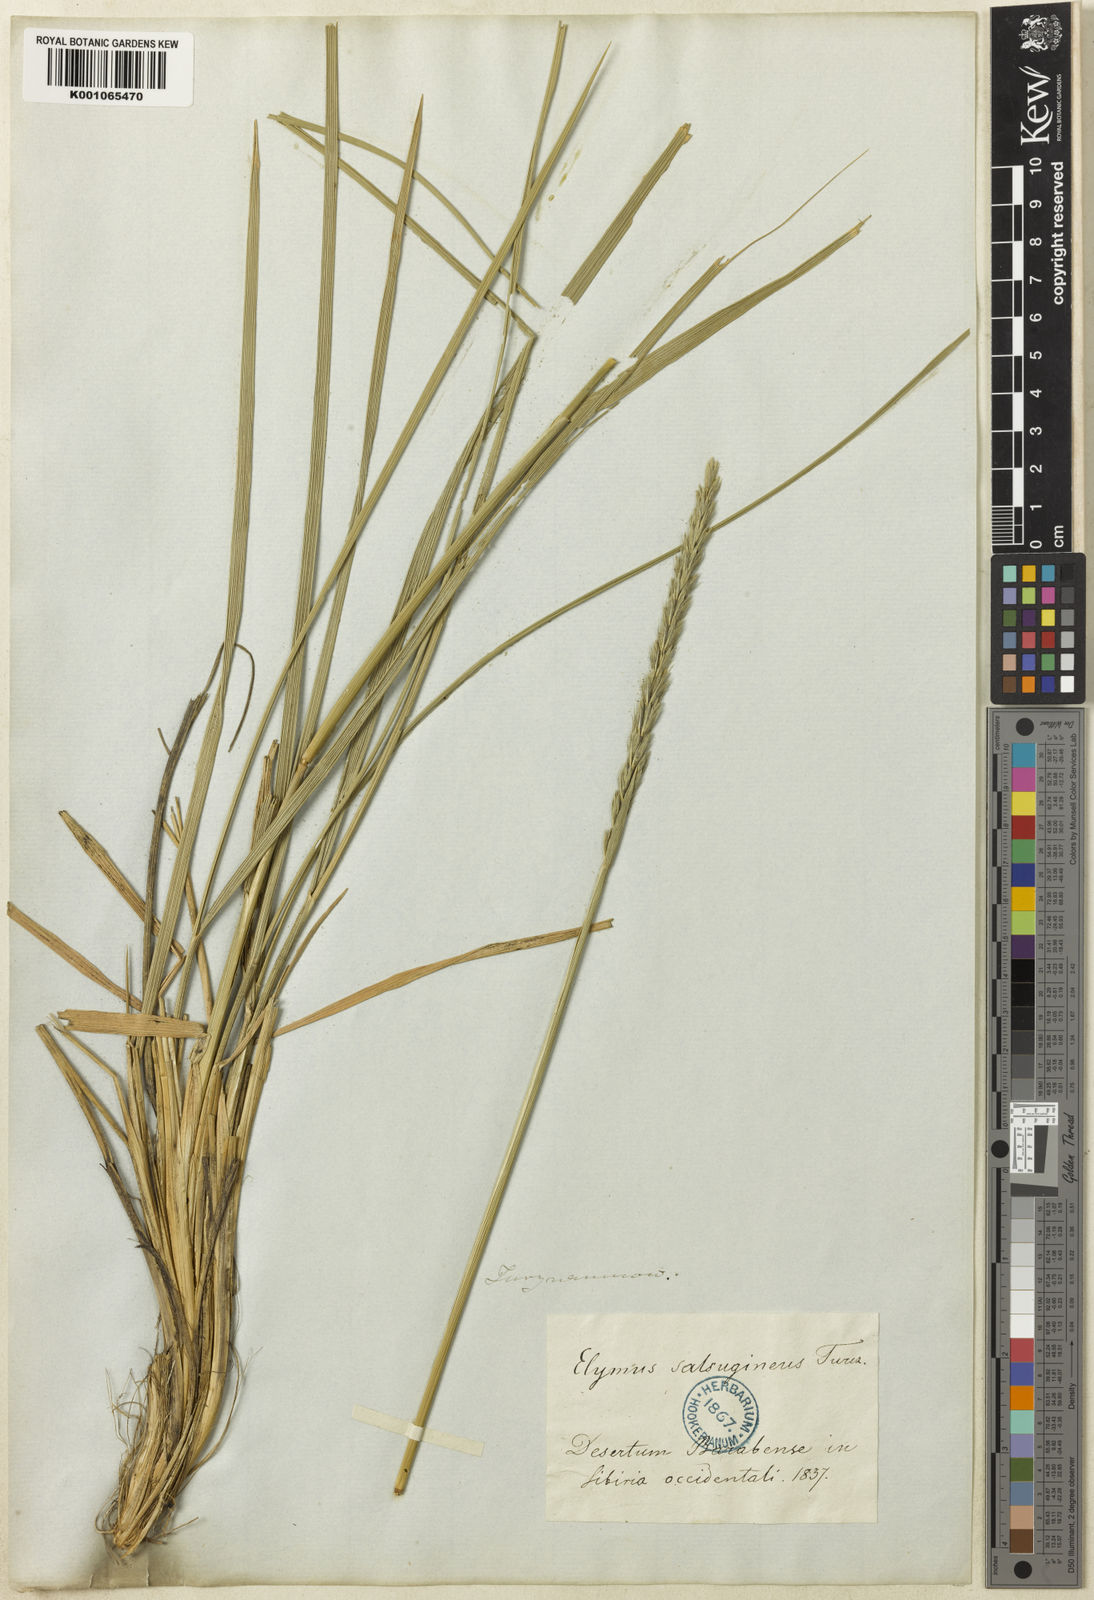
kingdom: Plantae
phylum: Tracheophyta
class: Liliopsida
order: Poales
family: Poaceae
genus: Leymus
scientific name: Leymus secalinus
